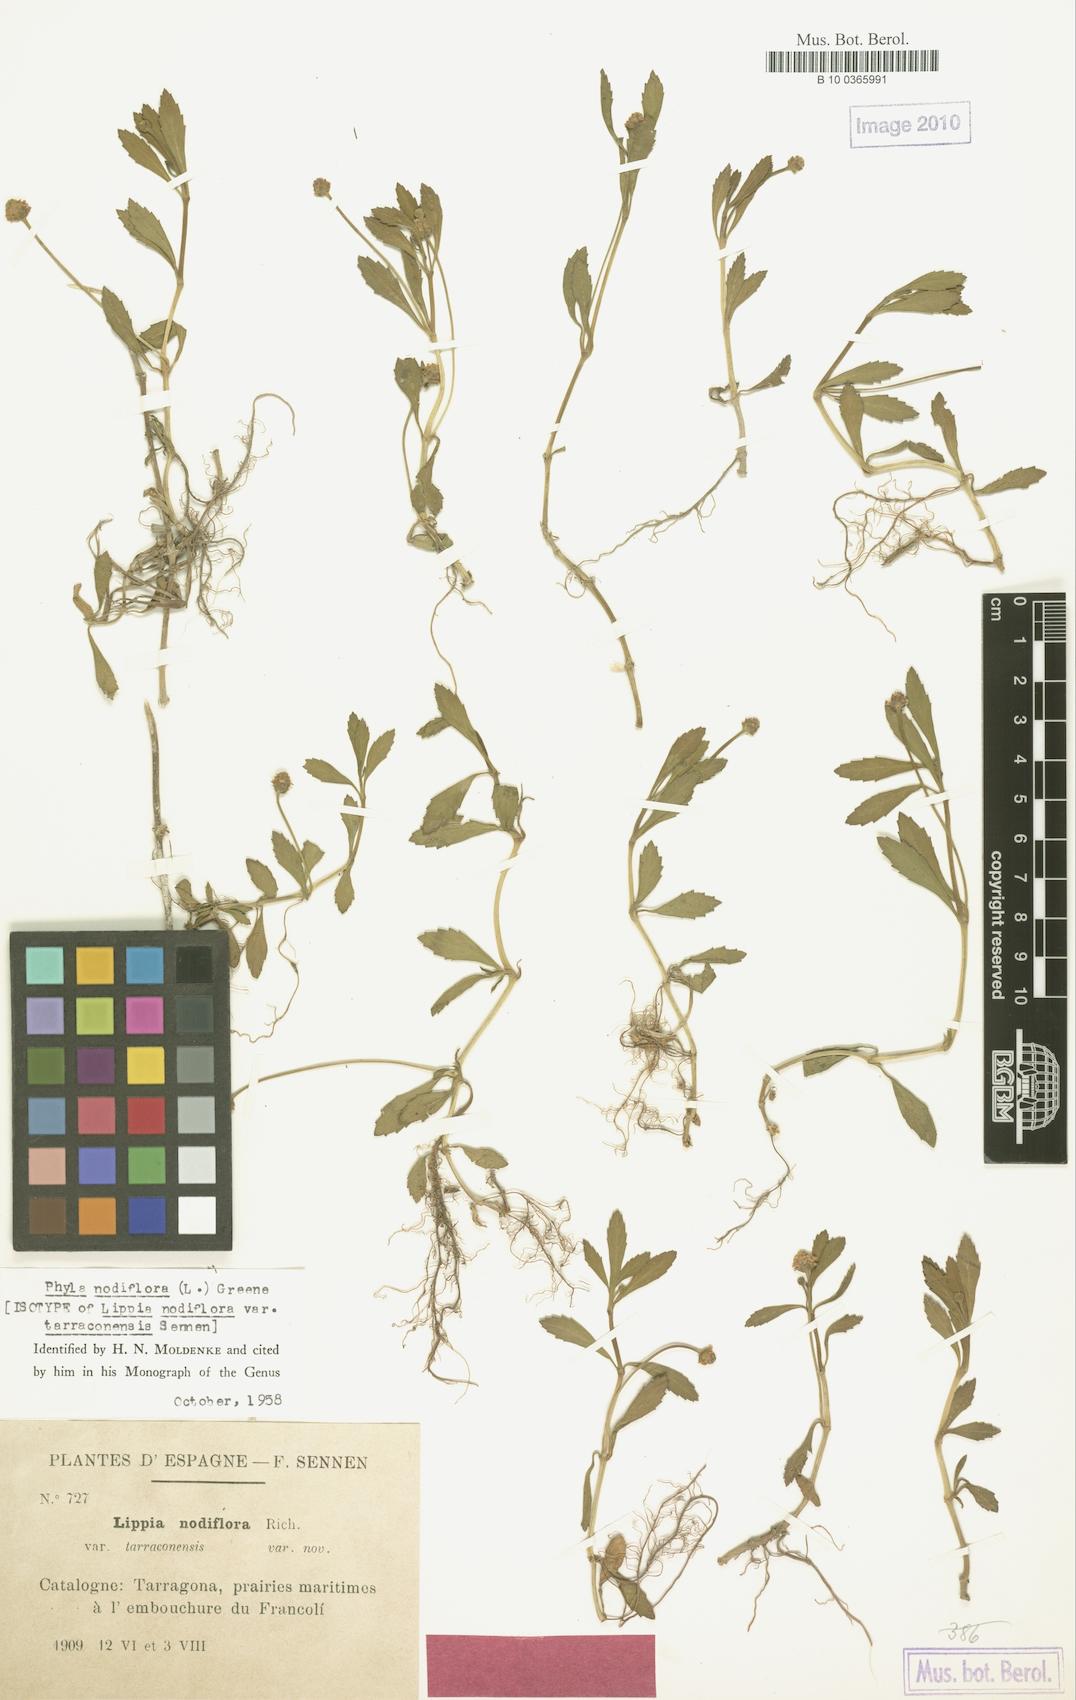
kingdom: Plantae
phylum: Tracheophyta
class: Magnoliopsida
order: Lamiales
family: Verbenaceae
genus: Phyla
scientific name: Phyla nodiflora
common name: Frogfruit
